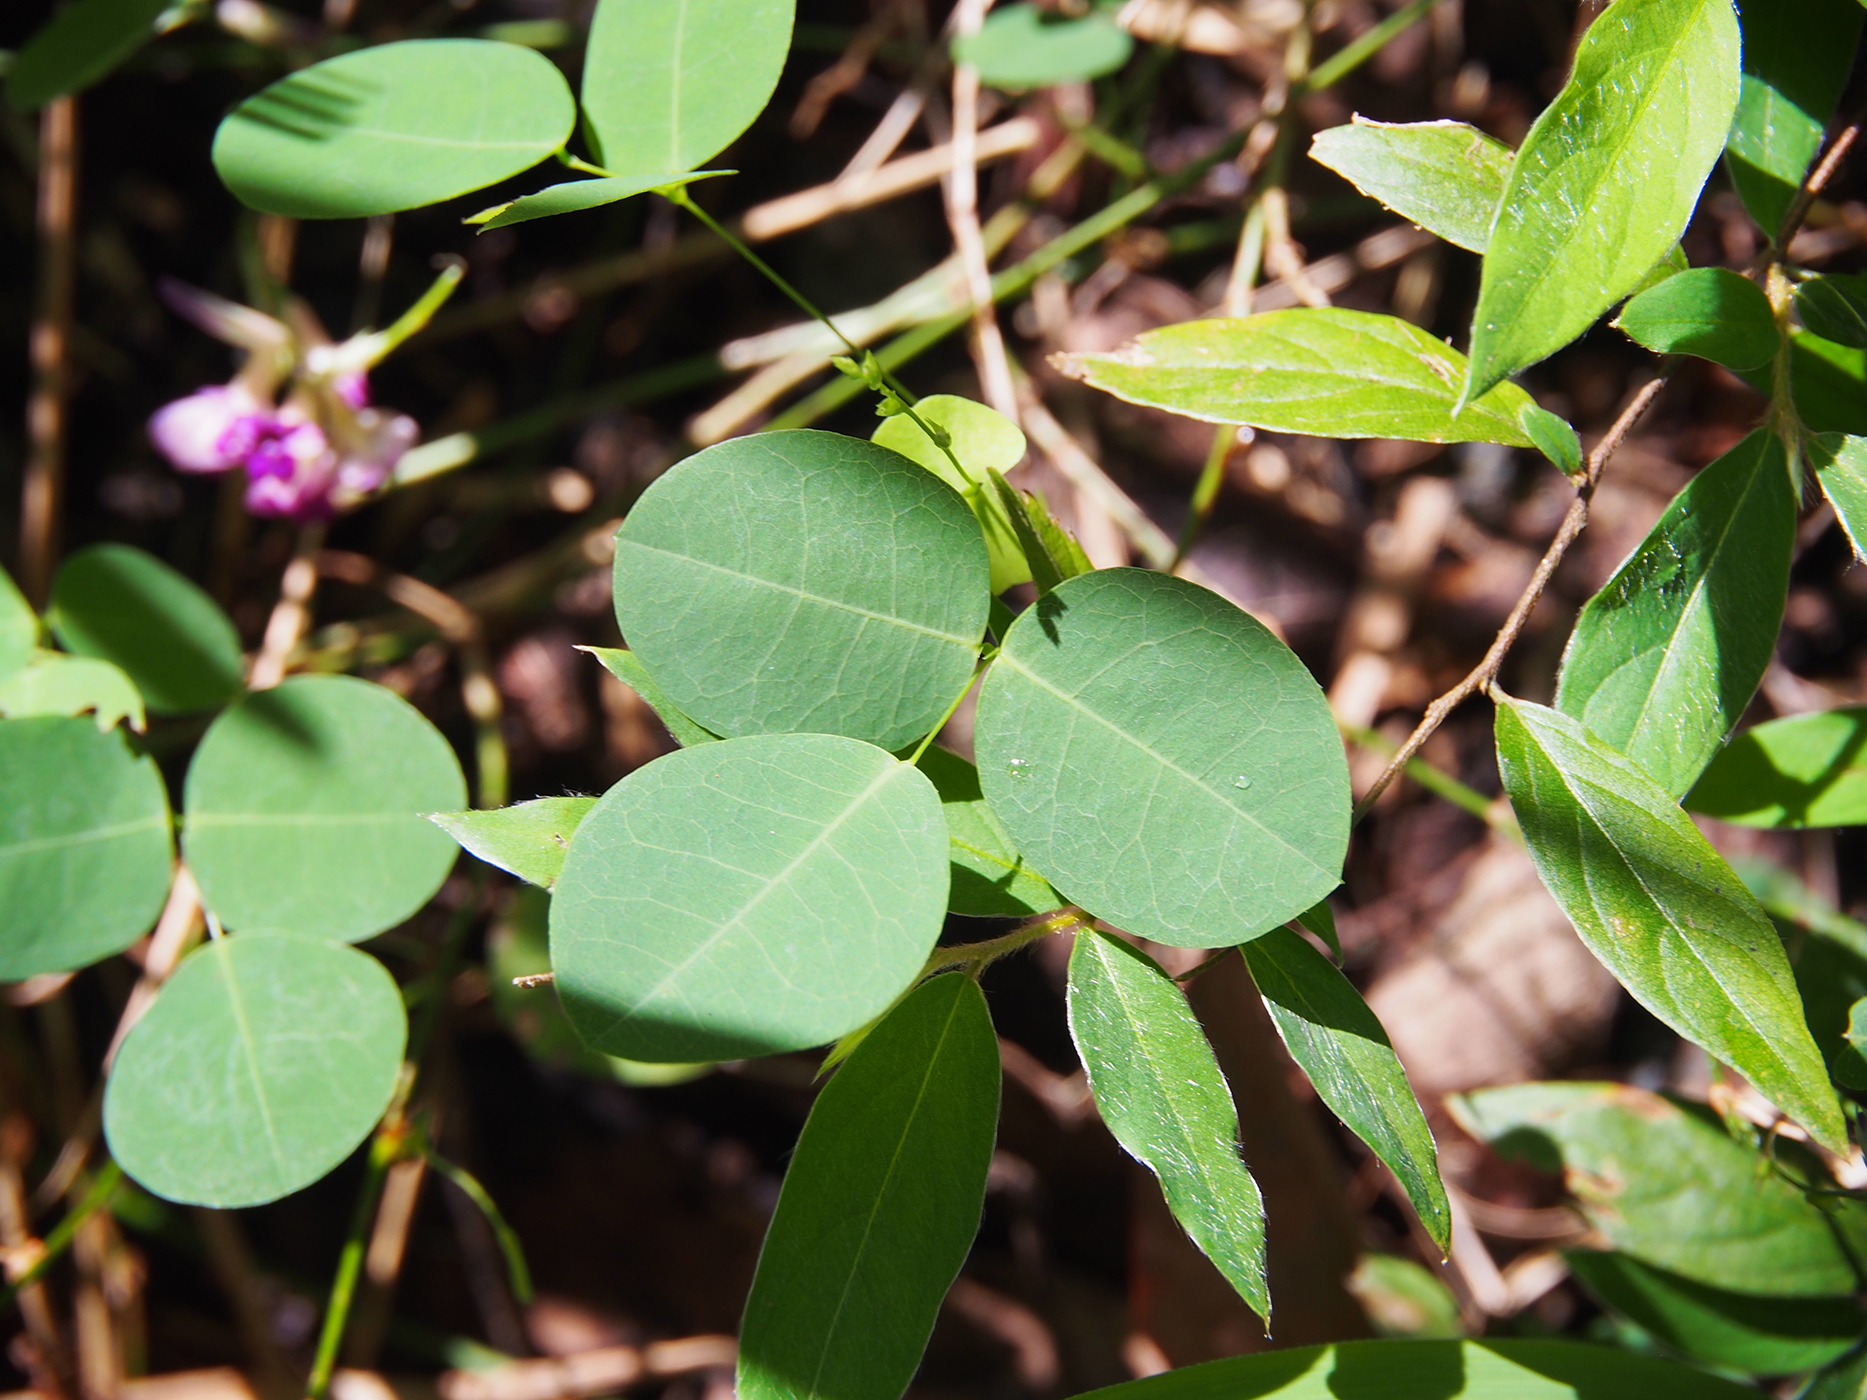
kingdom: Plantae
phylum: Tracheophyta
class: Magnoliopsida
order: Fabales
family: Fabaceae
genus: Shuteria
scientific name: Shuteria
